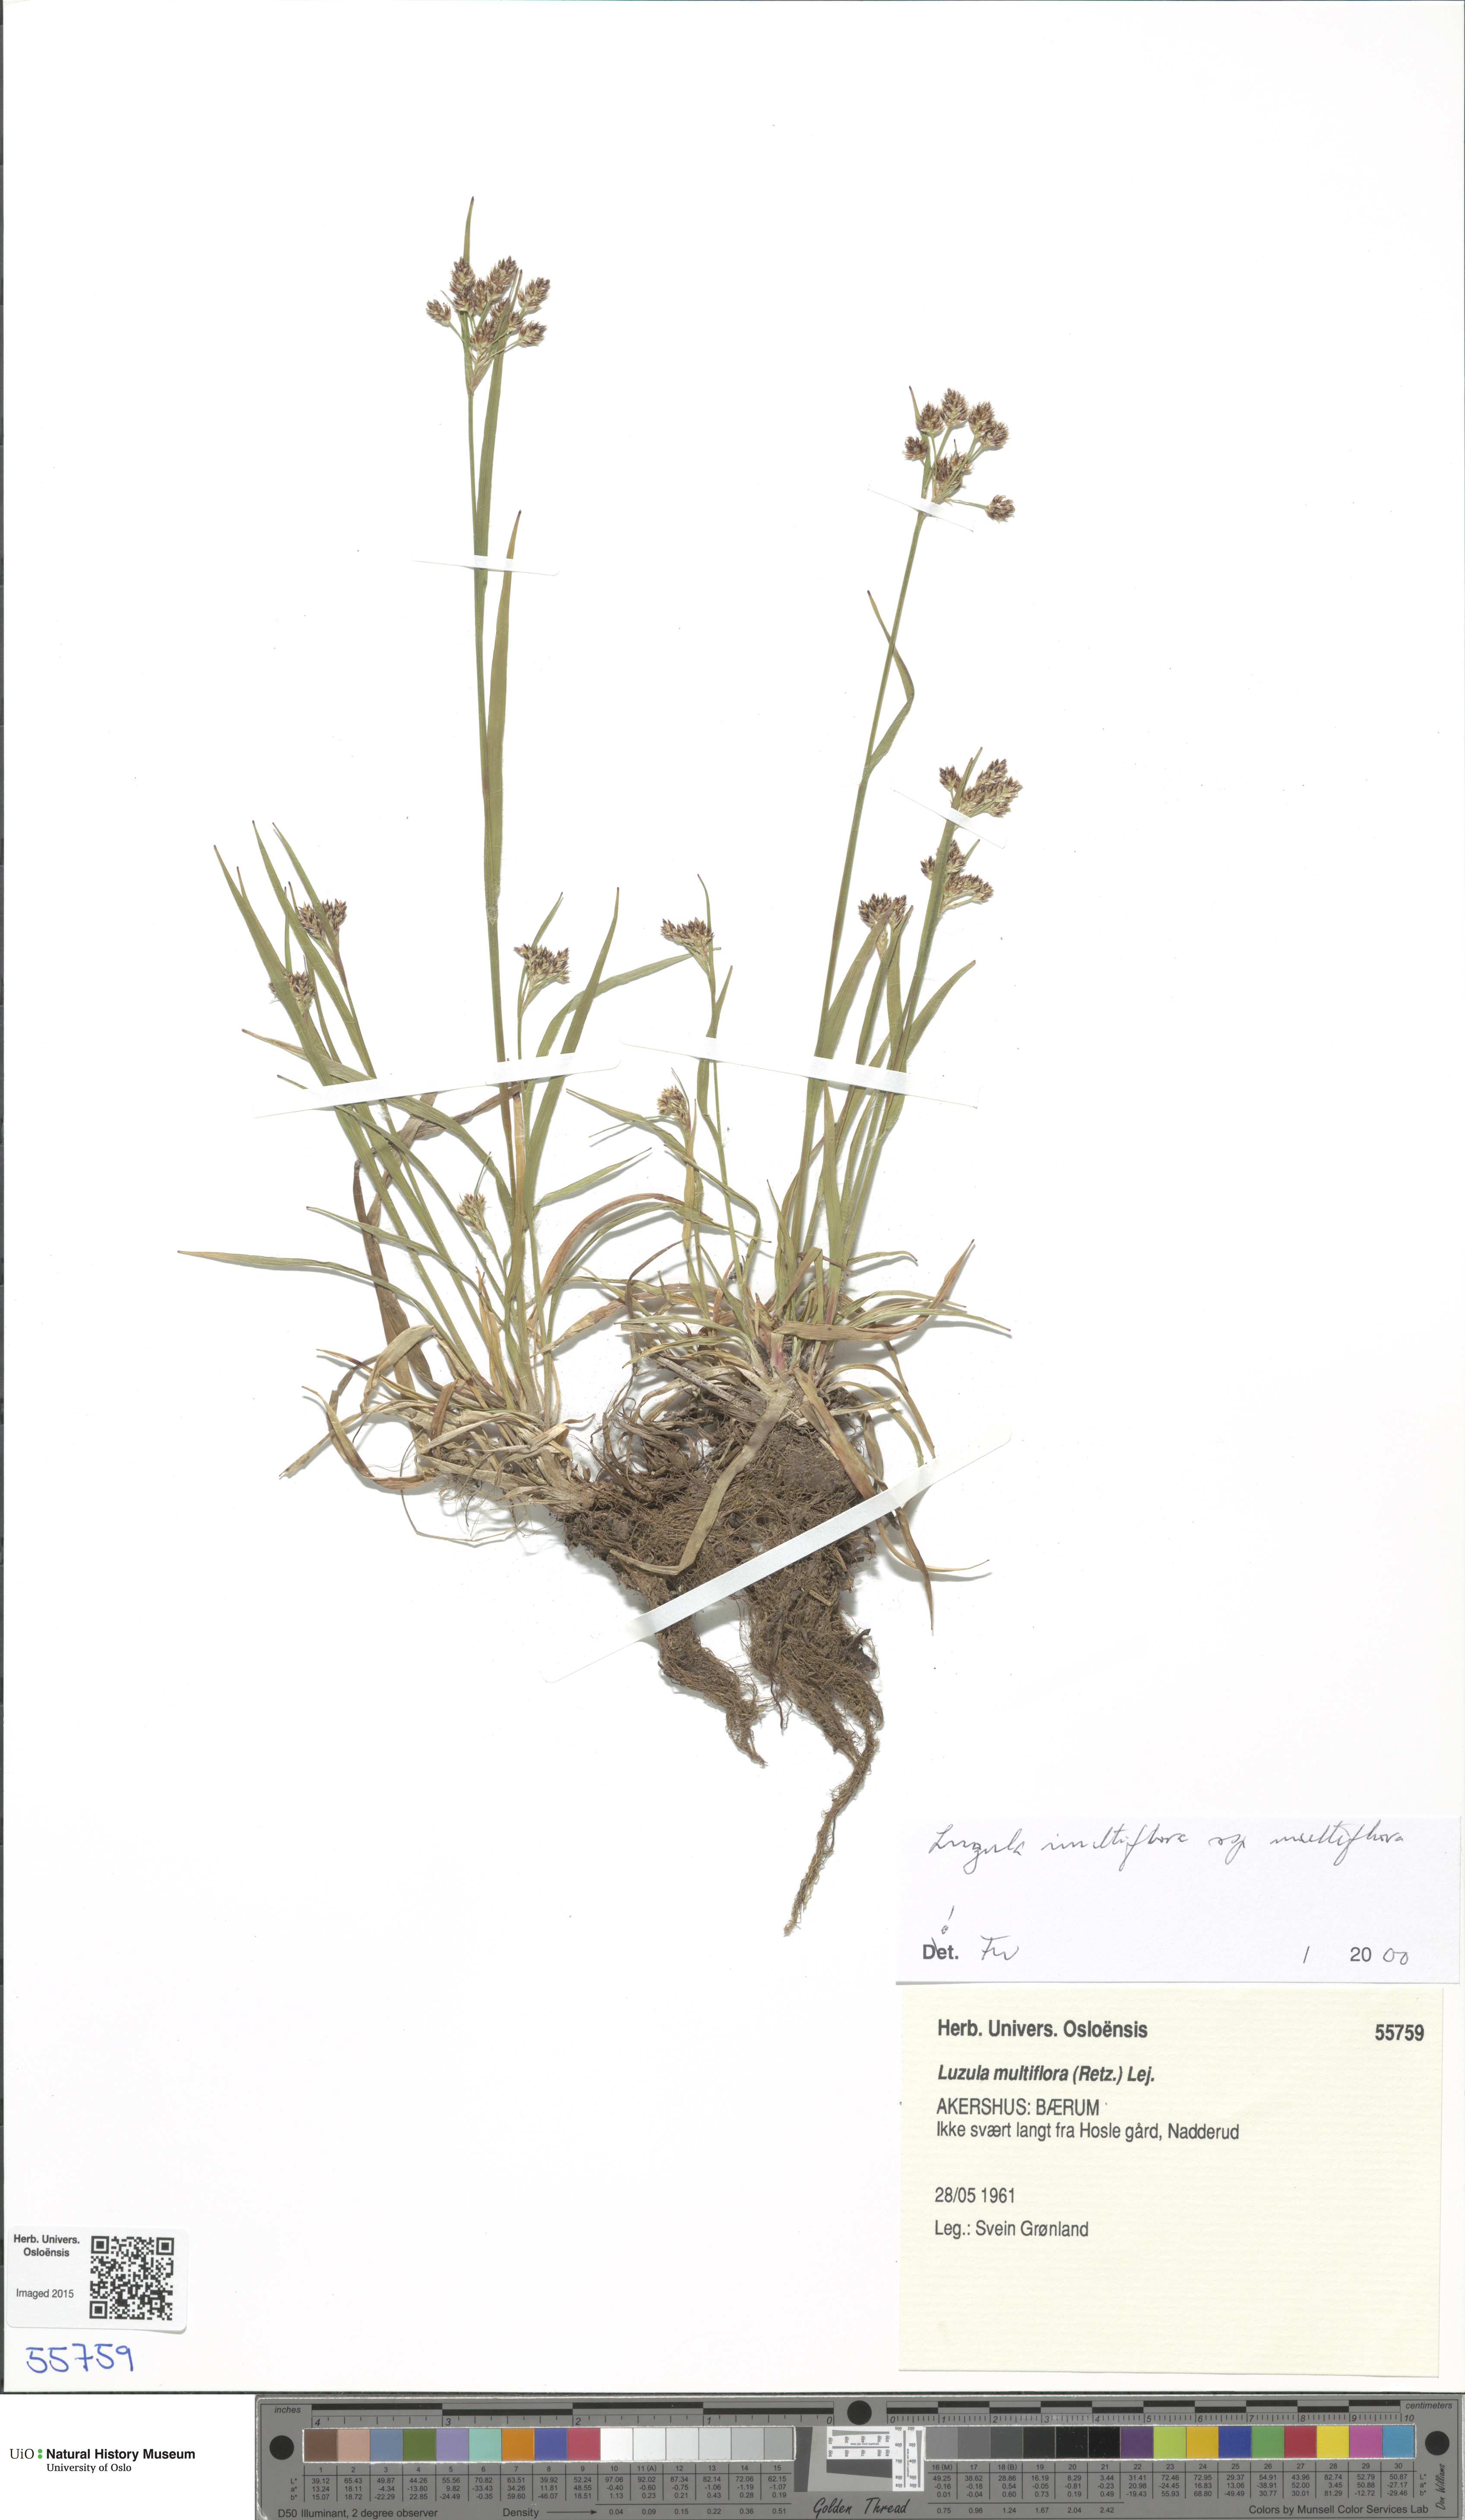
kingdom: Plantae
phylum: Tracheophyta
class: Liliopsida
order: Poales
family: Juncaceae
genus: Luzula
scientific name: Luzula multiflora
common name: Heath wood-rush
